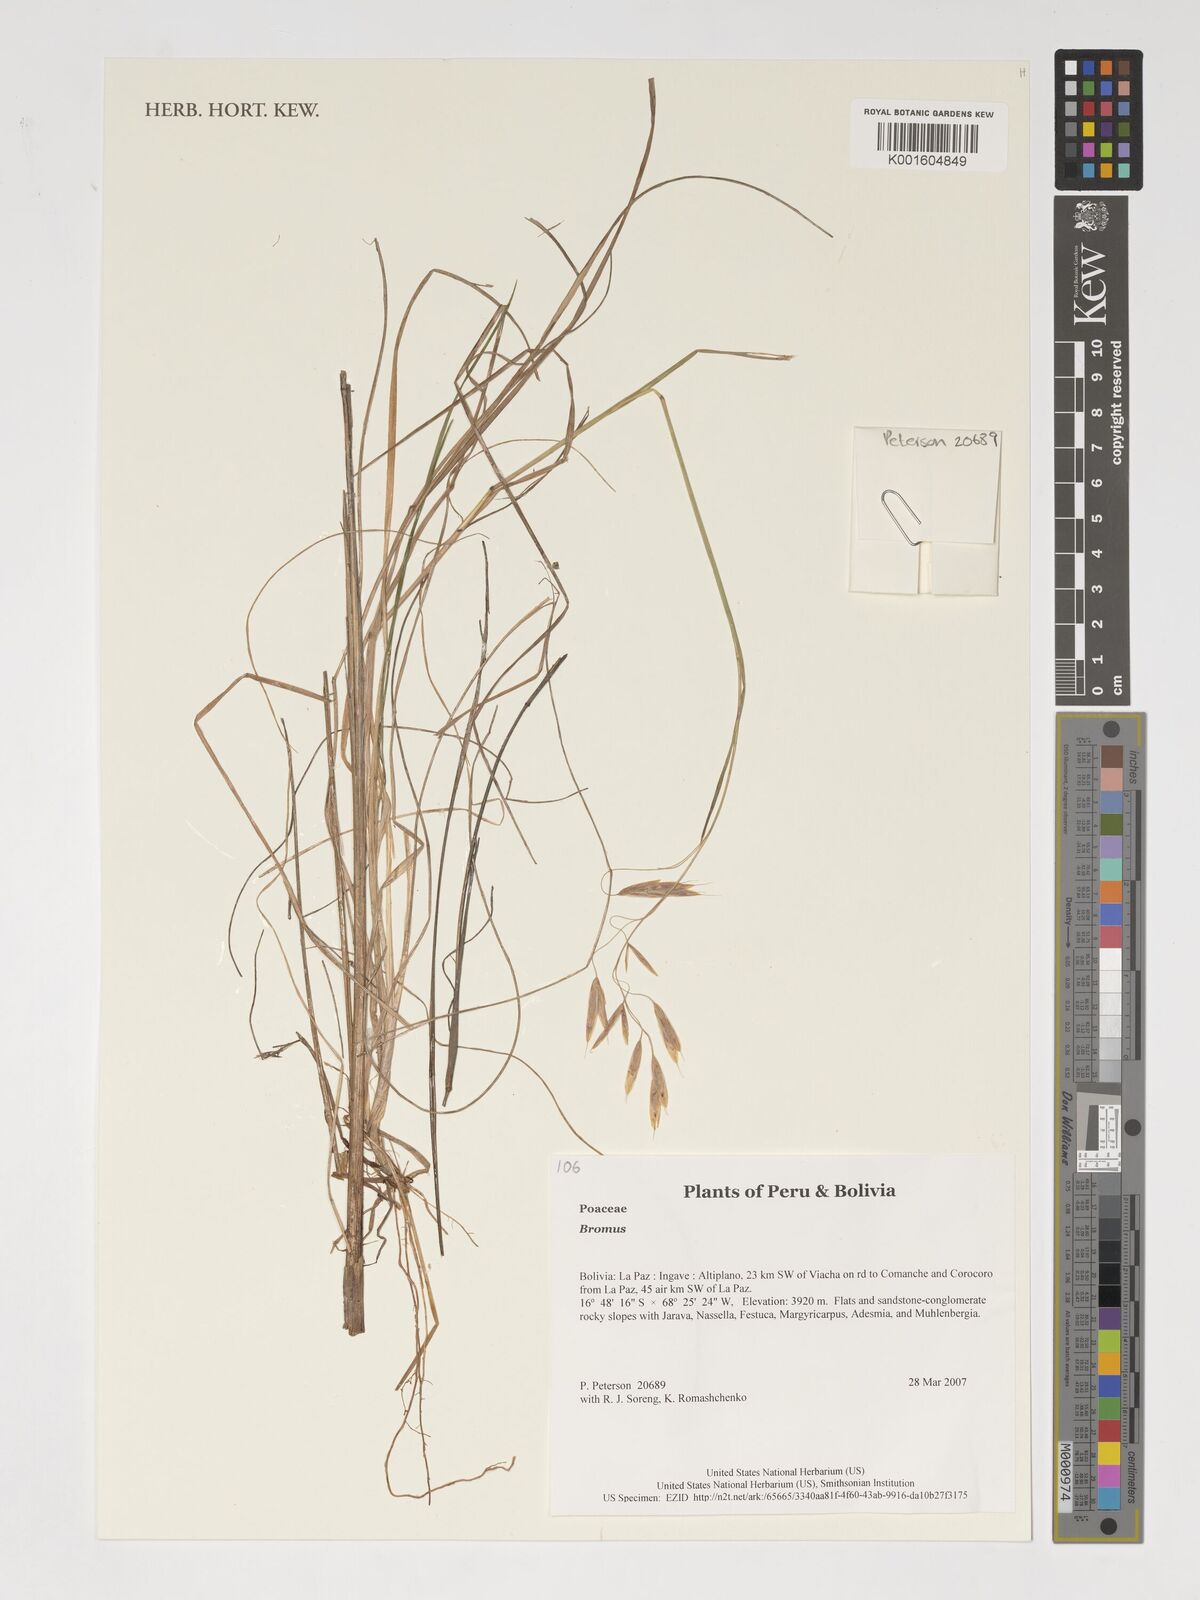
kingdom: Plantae
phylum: Tracheophyta
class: Liliopsida
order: Poales
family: Poaceae
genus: Bromus
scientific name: Bromus
